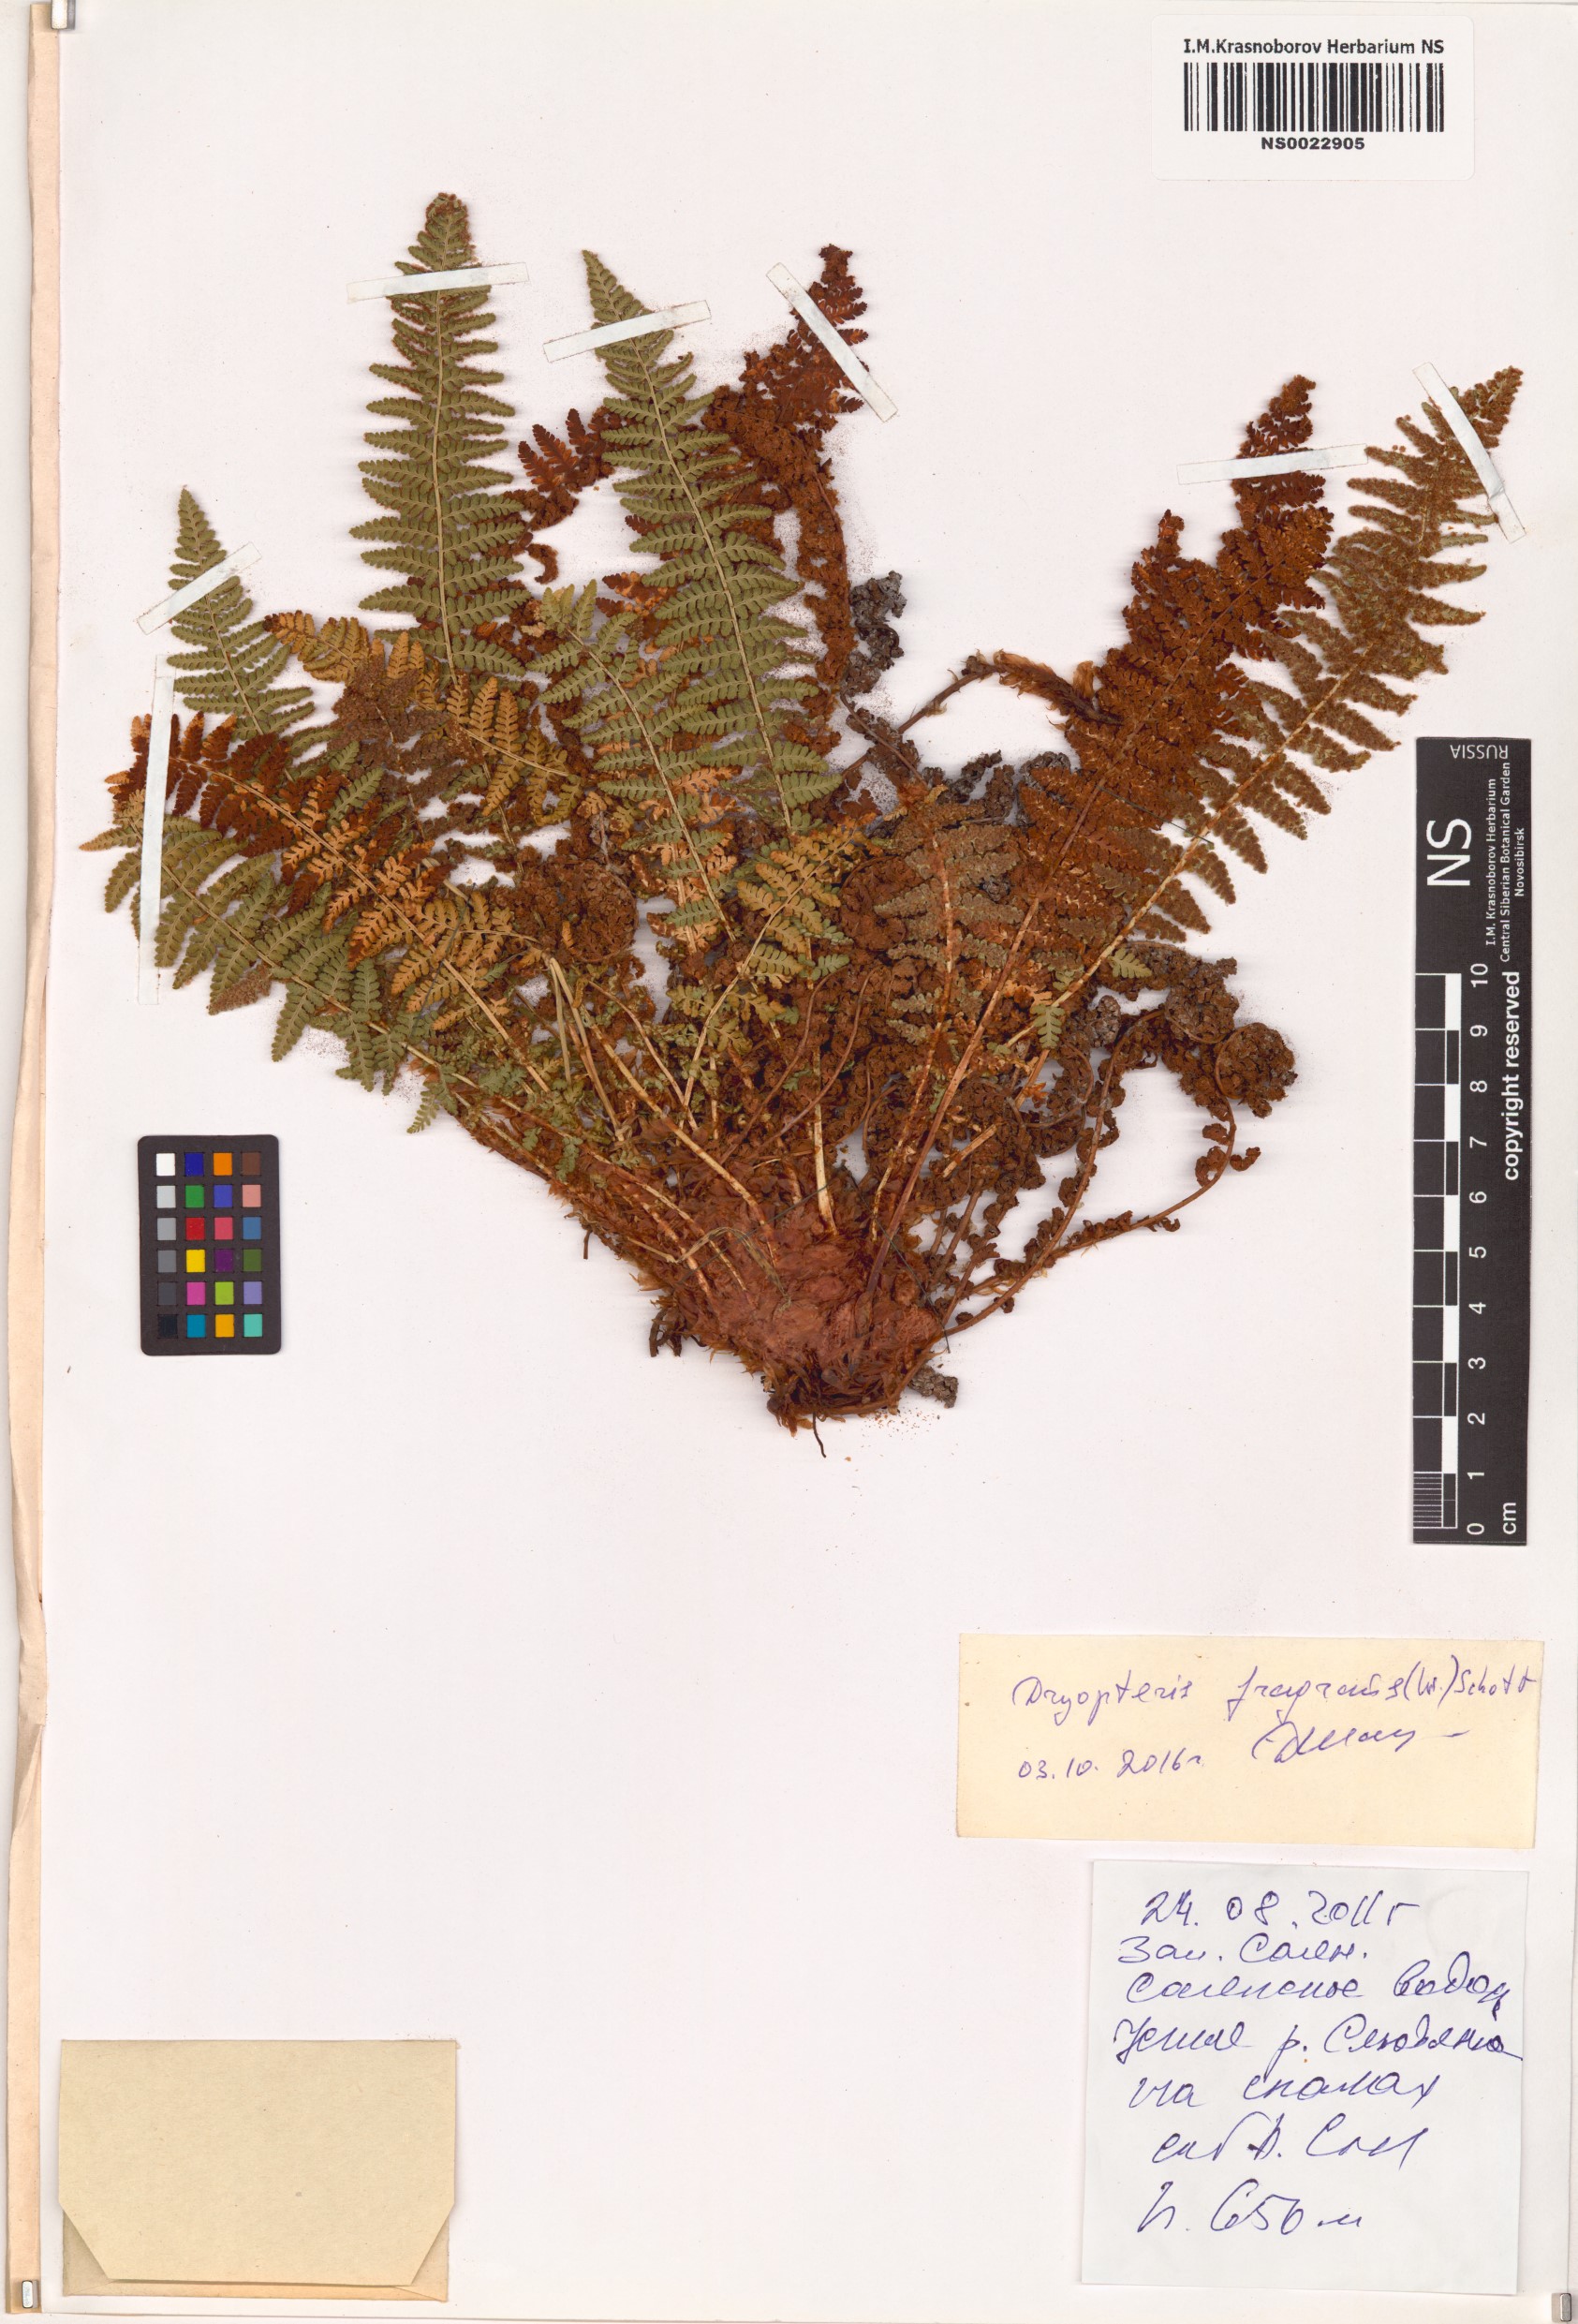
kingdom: Plantae
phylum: Tracheophyta
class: Polypodiopsida
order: Polypodiales
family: Dryopteridaceae
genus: Dryopteris
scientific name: Dryopteris fragrans
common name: Fragrant wood fern
